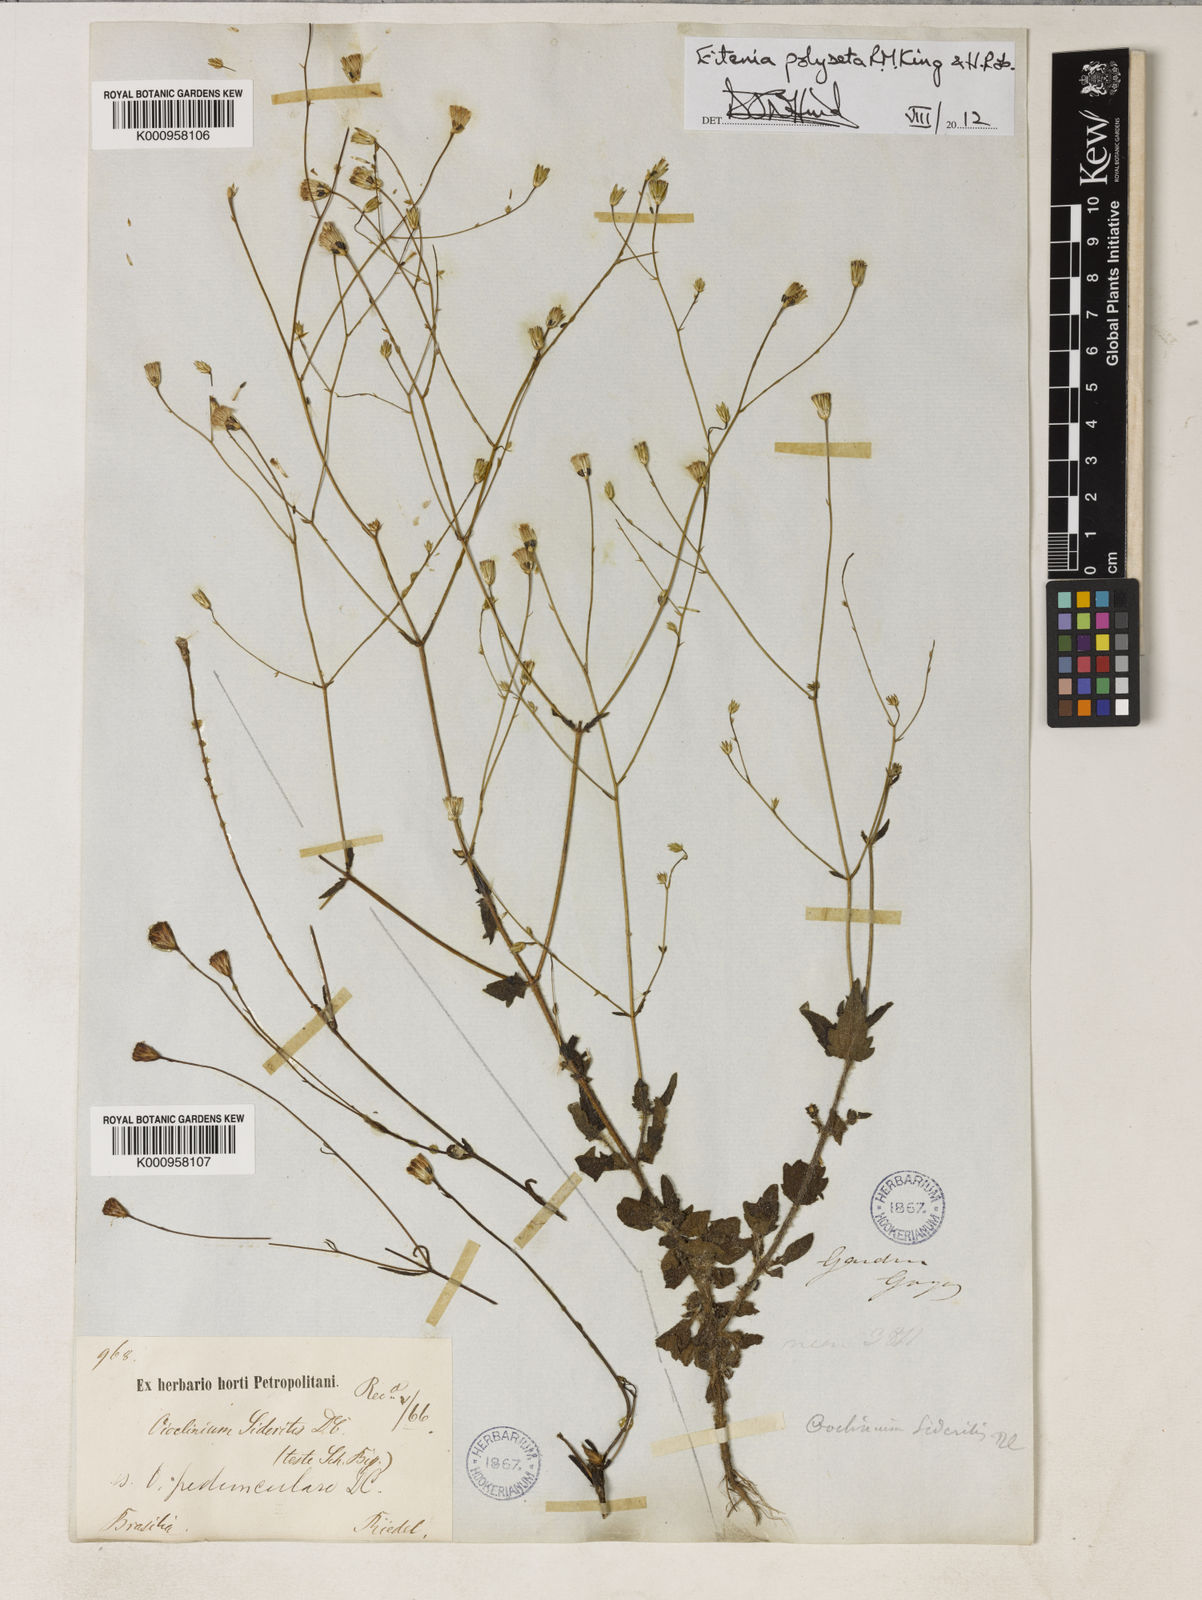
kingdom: Plantae
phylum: Tracheophyta
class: Magnoliopsida
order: Asterales
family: Asteraceae
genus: Eitenia
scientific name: Eitenia polyseta
